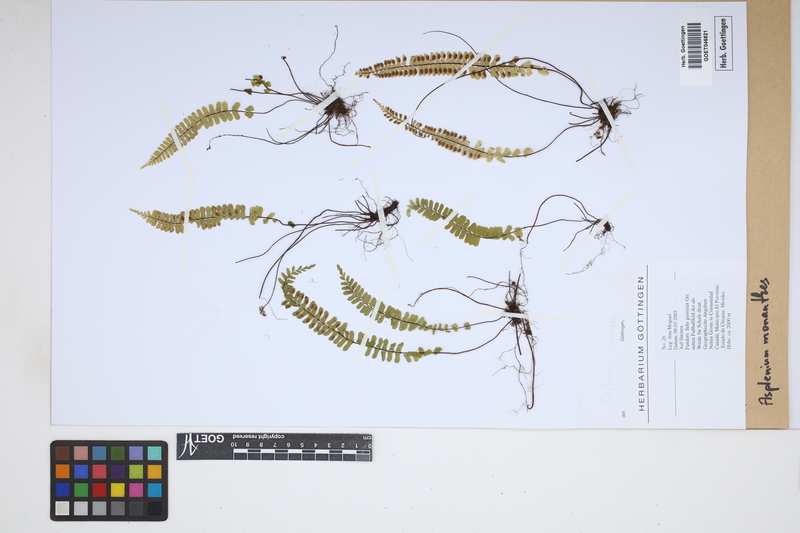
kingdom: Plantae
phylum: Tracheophyta
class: Polypodiopsida
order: Polypodiales
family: Aspleniaceae
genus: Asplenium
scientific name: Asplenium monanthes
